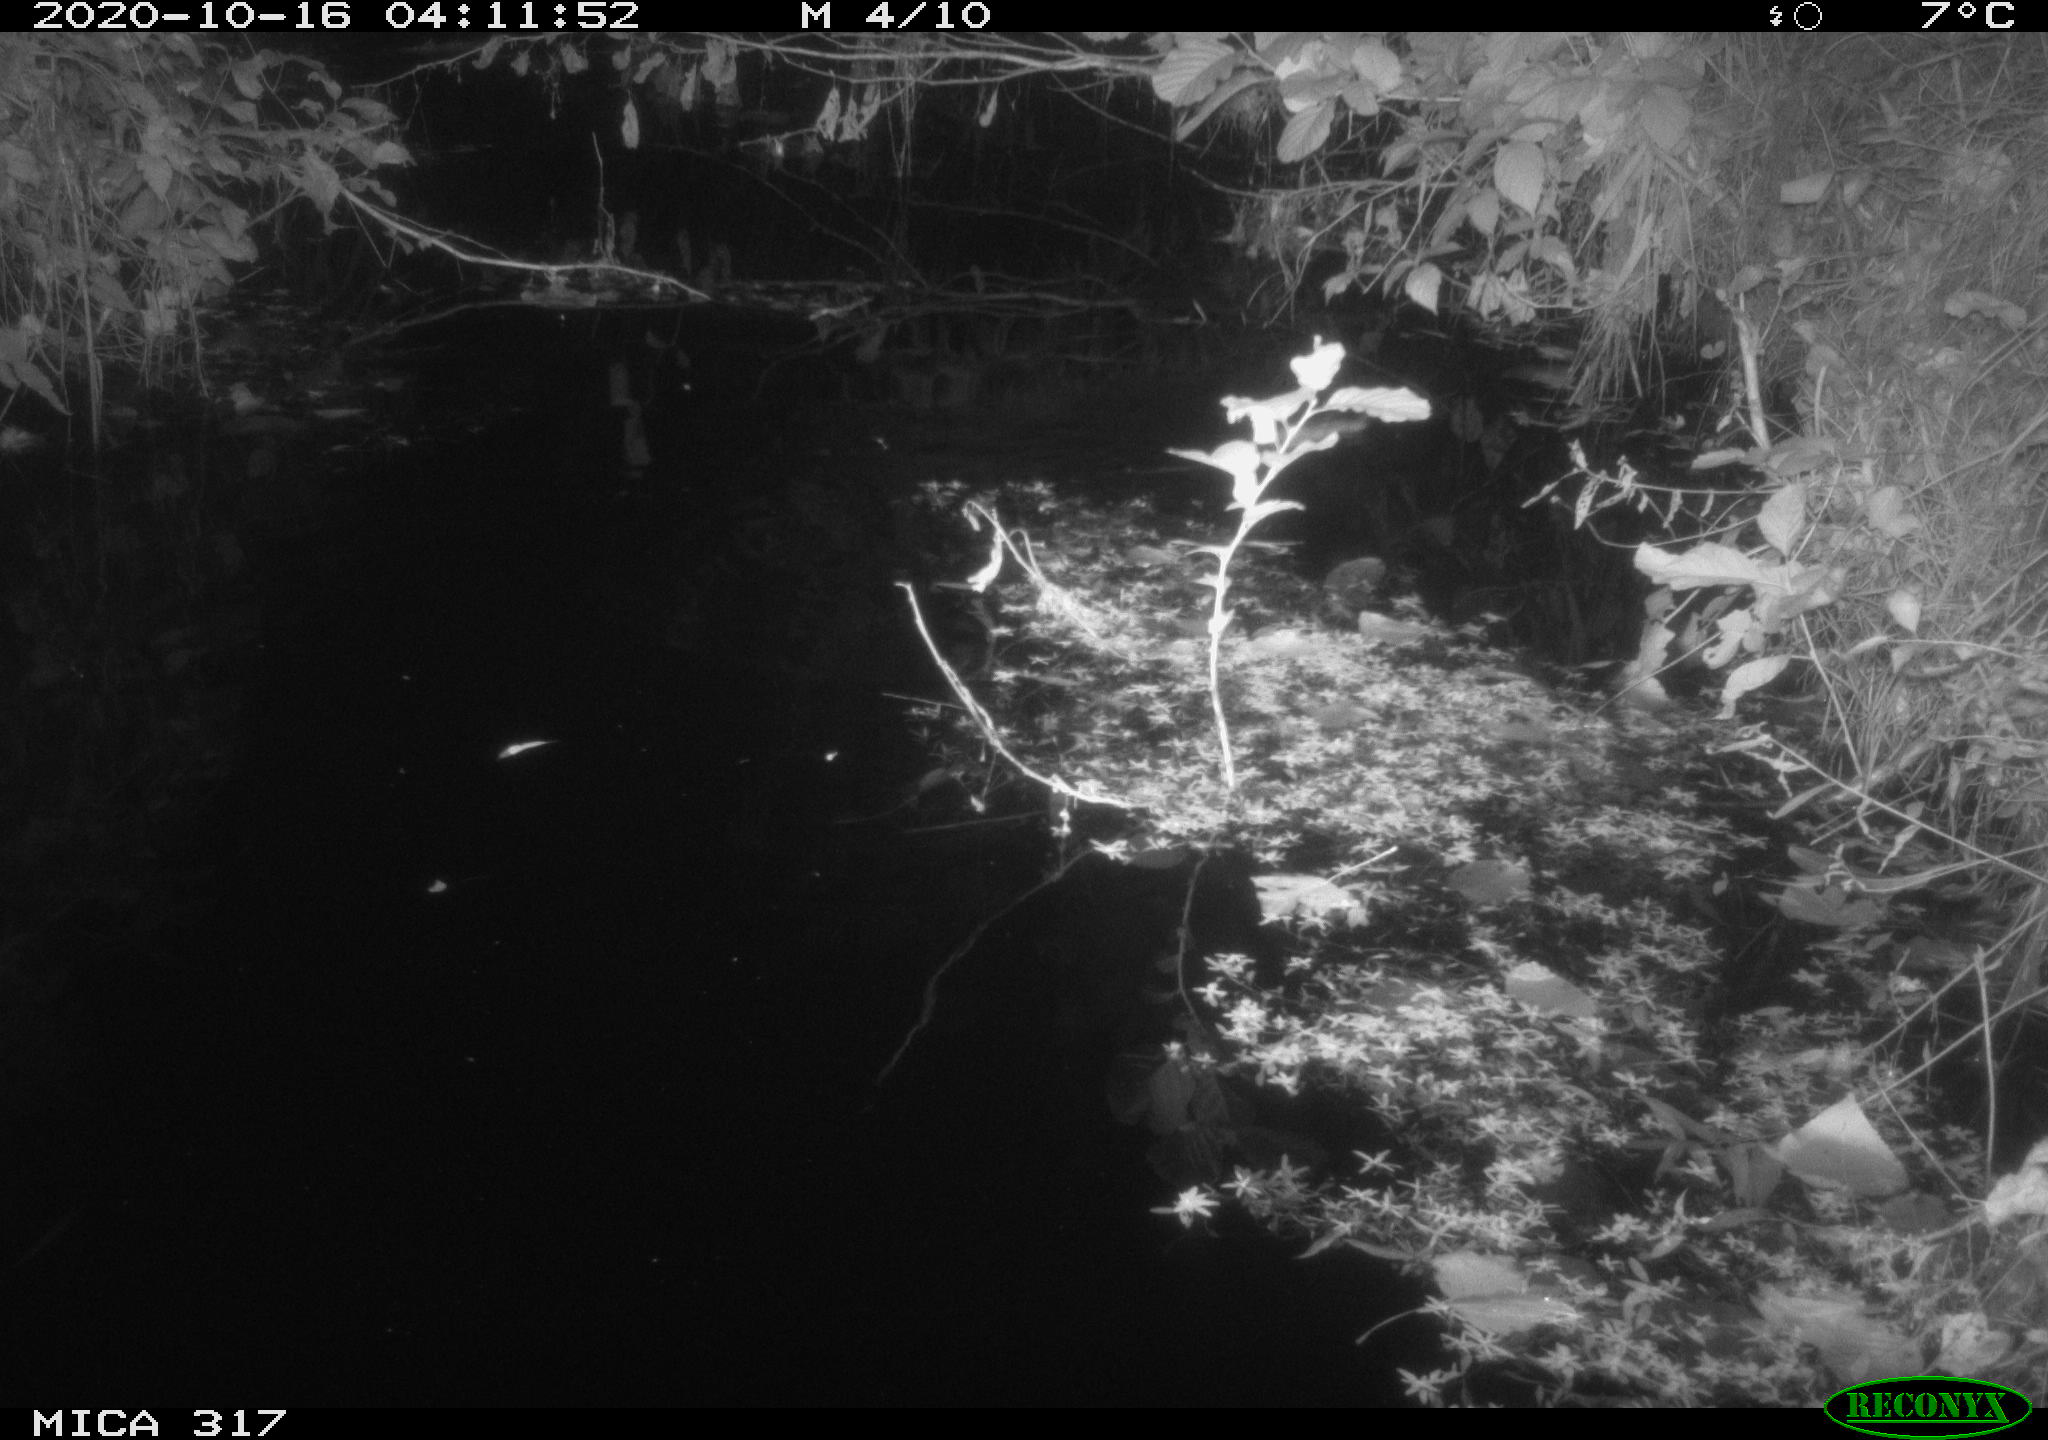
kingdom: Animalia
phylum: Chordata
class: Mammalia
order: Rodentia
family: Muridae
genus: Rattus
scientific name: Rattus norvegicus
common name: Brown rat
